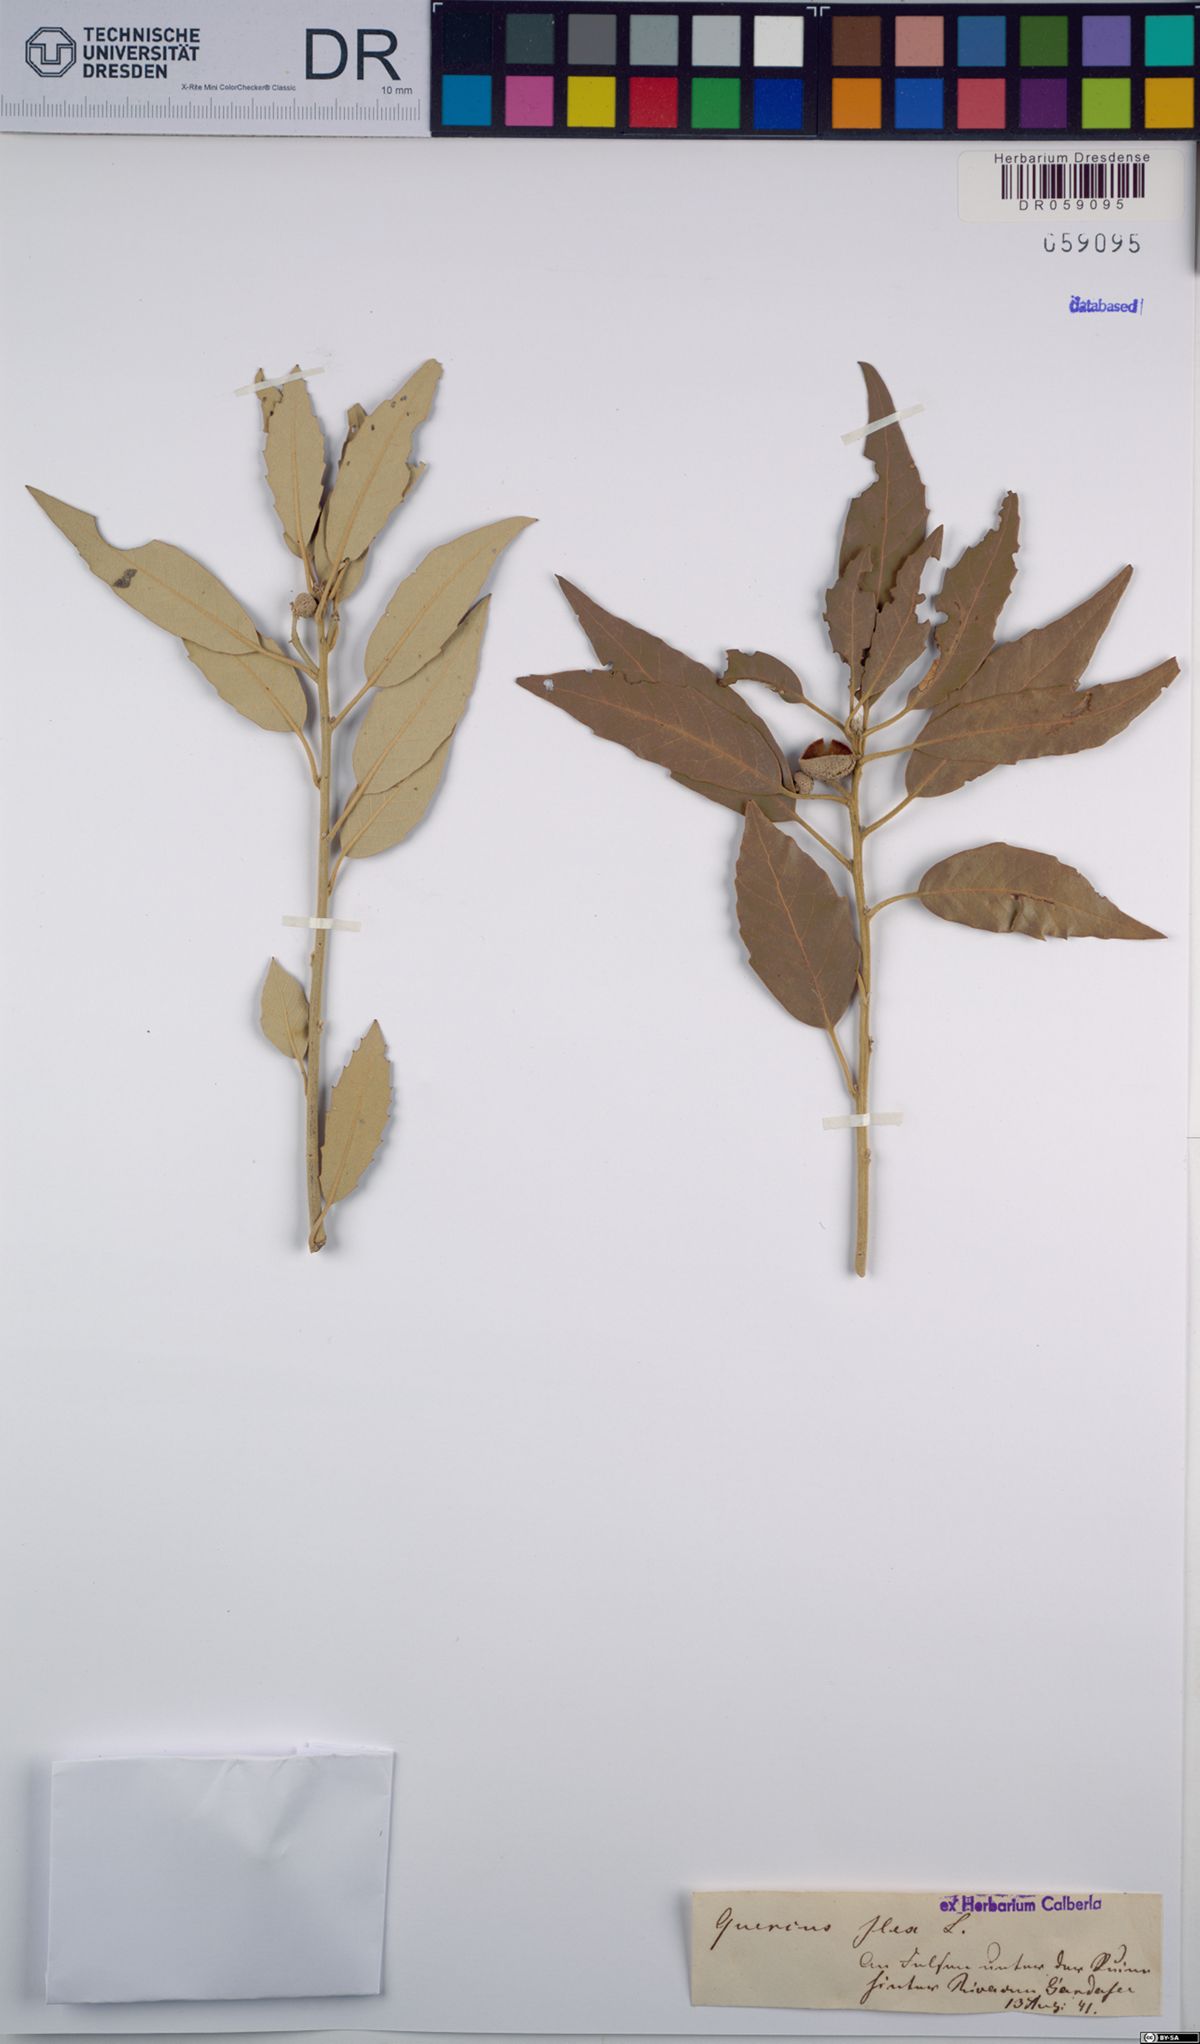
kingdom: Plantae
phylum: Tracheophyta
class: Magnoliopsida
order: Fagales
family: Fagaceae
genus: Quercus
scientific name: Quercus ilex
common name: Evergreen oak
